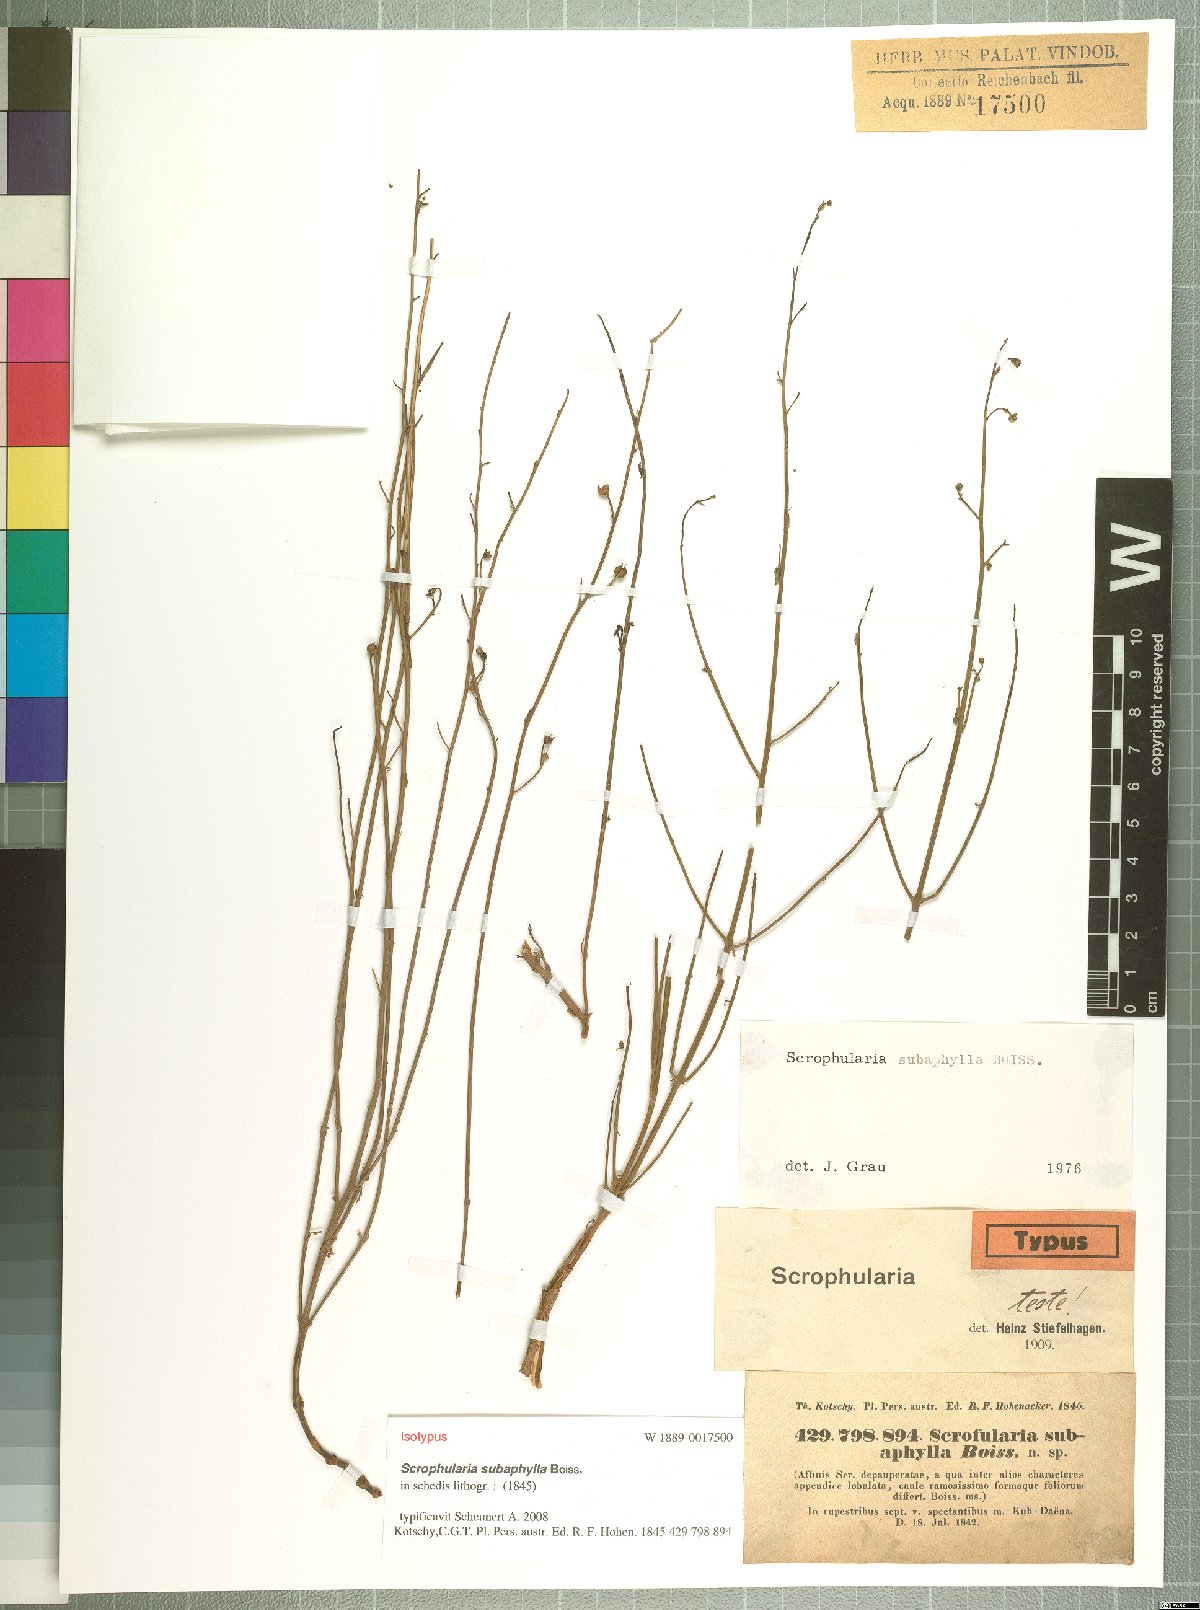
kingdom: Plantae
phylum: Tracheophyta
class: Magnoliopsida
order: Lamiales
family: Scrophulariaceae
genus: Scrophularia
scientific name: Scrophularia subaphylla
